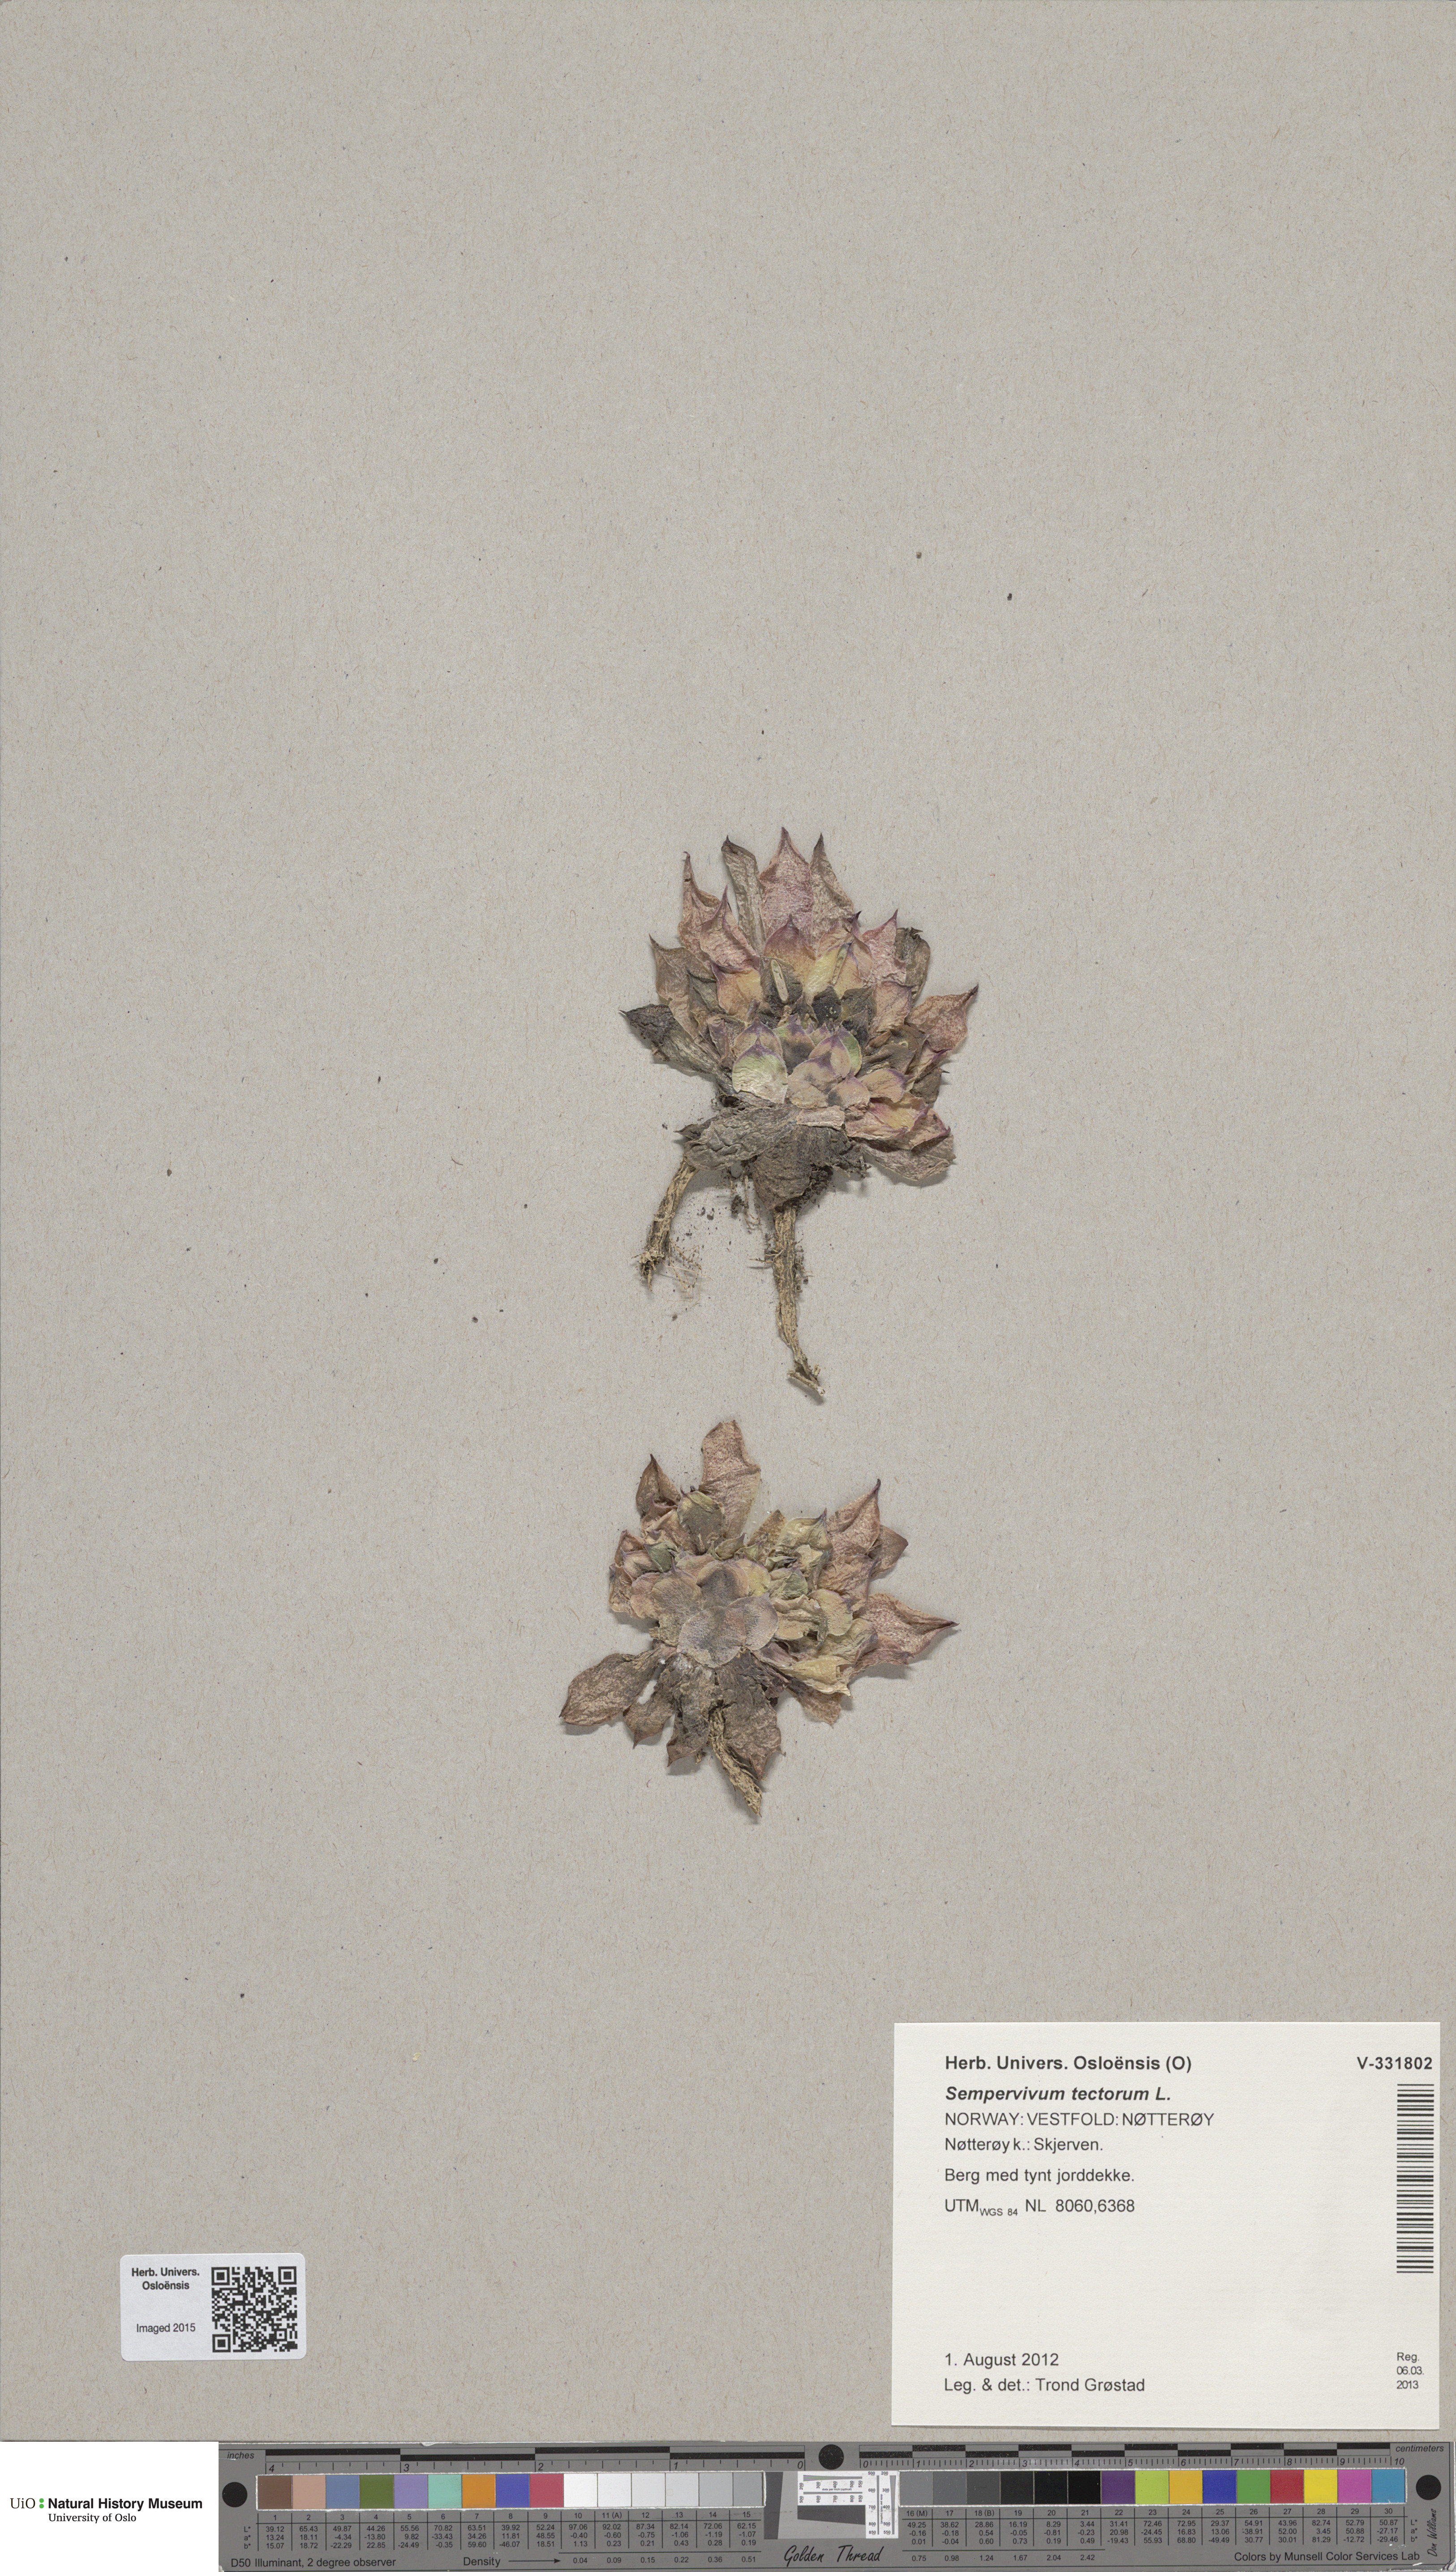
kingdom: Plantae
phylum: Tracheophyta
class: Magnoliopsida
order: Saxifragales
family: Crassulaceae
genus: Sempervivum
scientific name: Sempervivum tectorum
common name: House-leek
